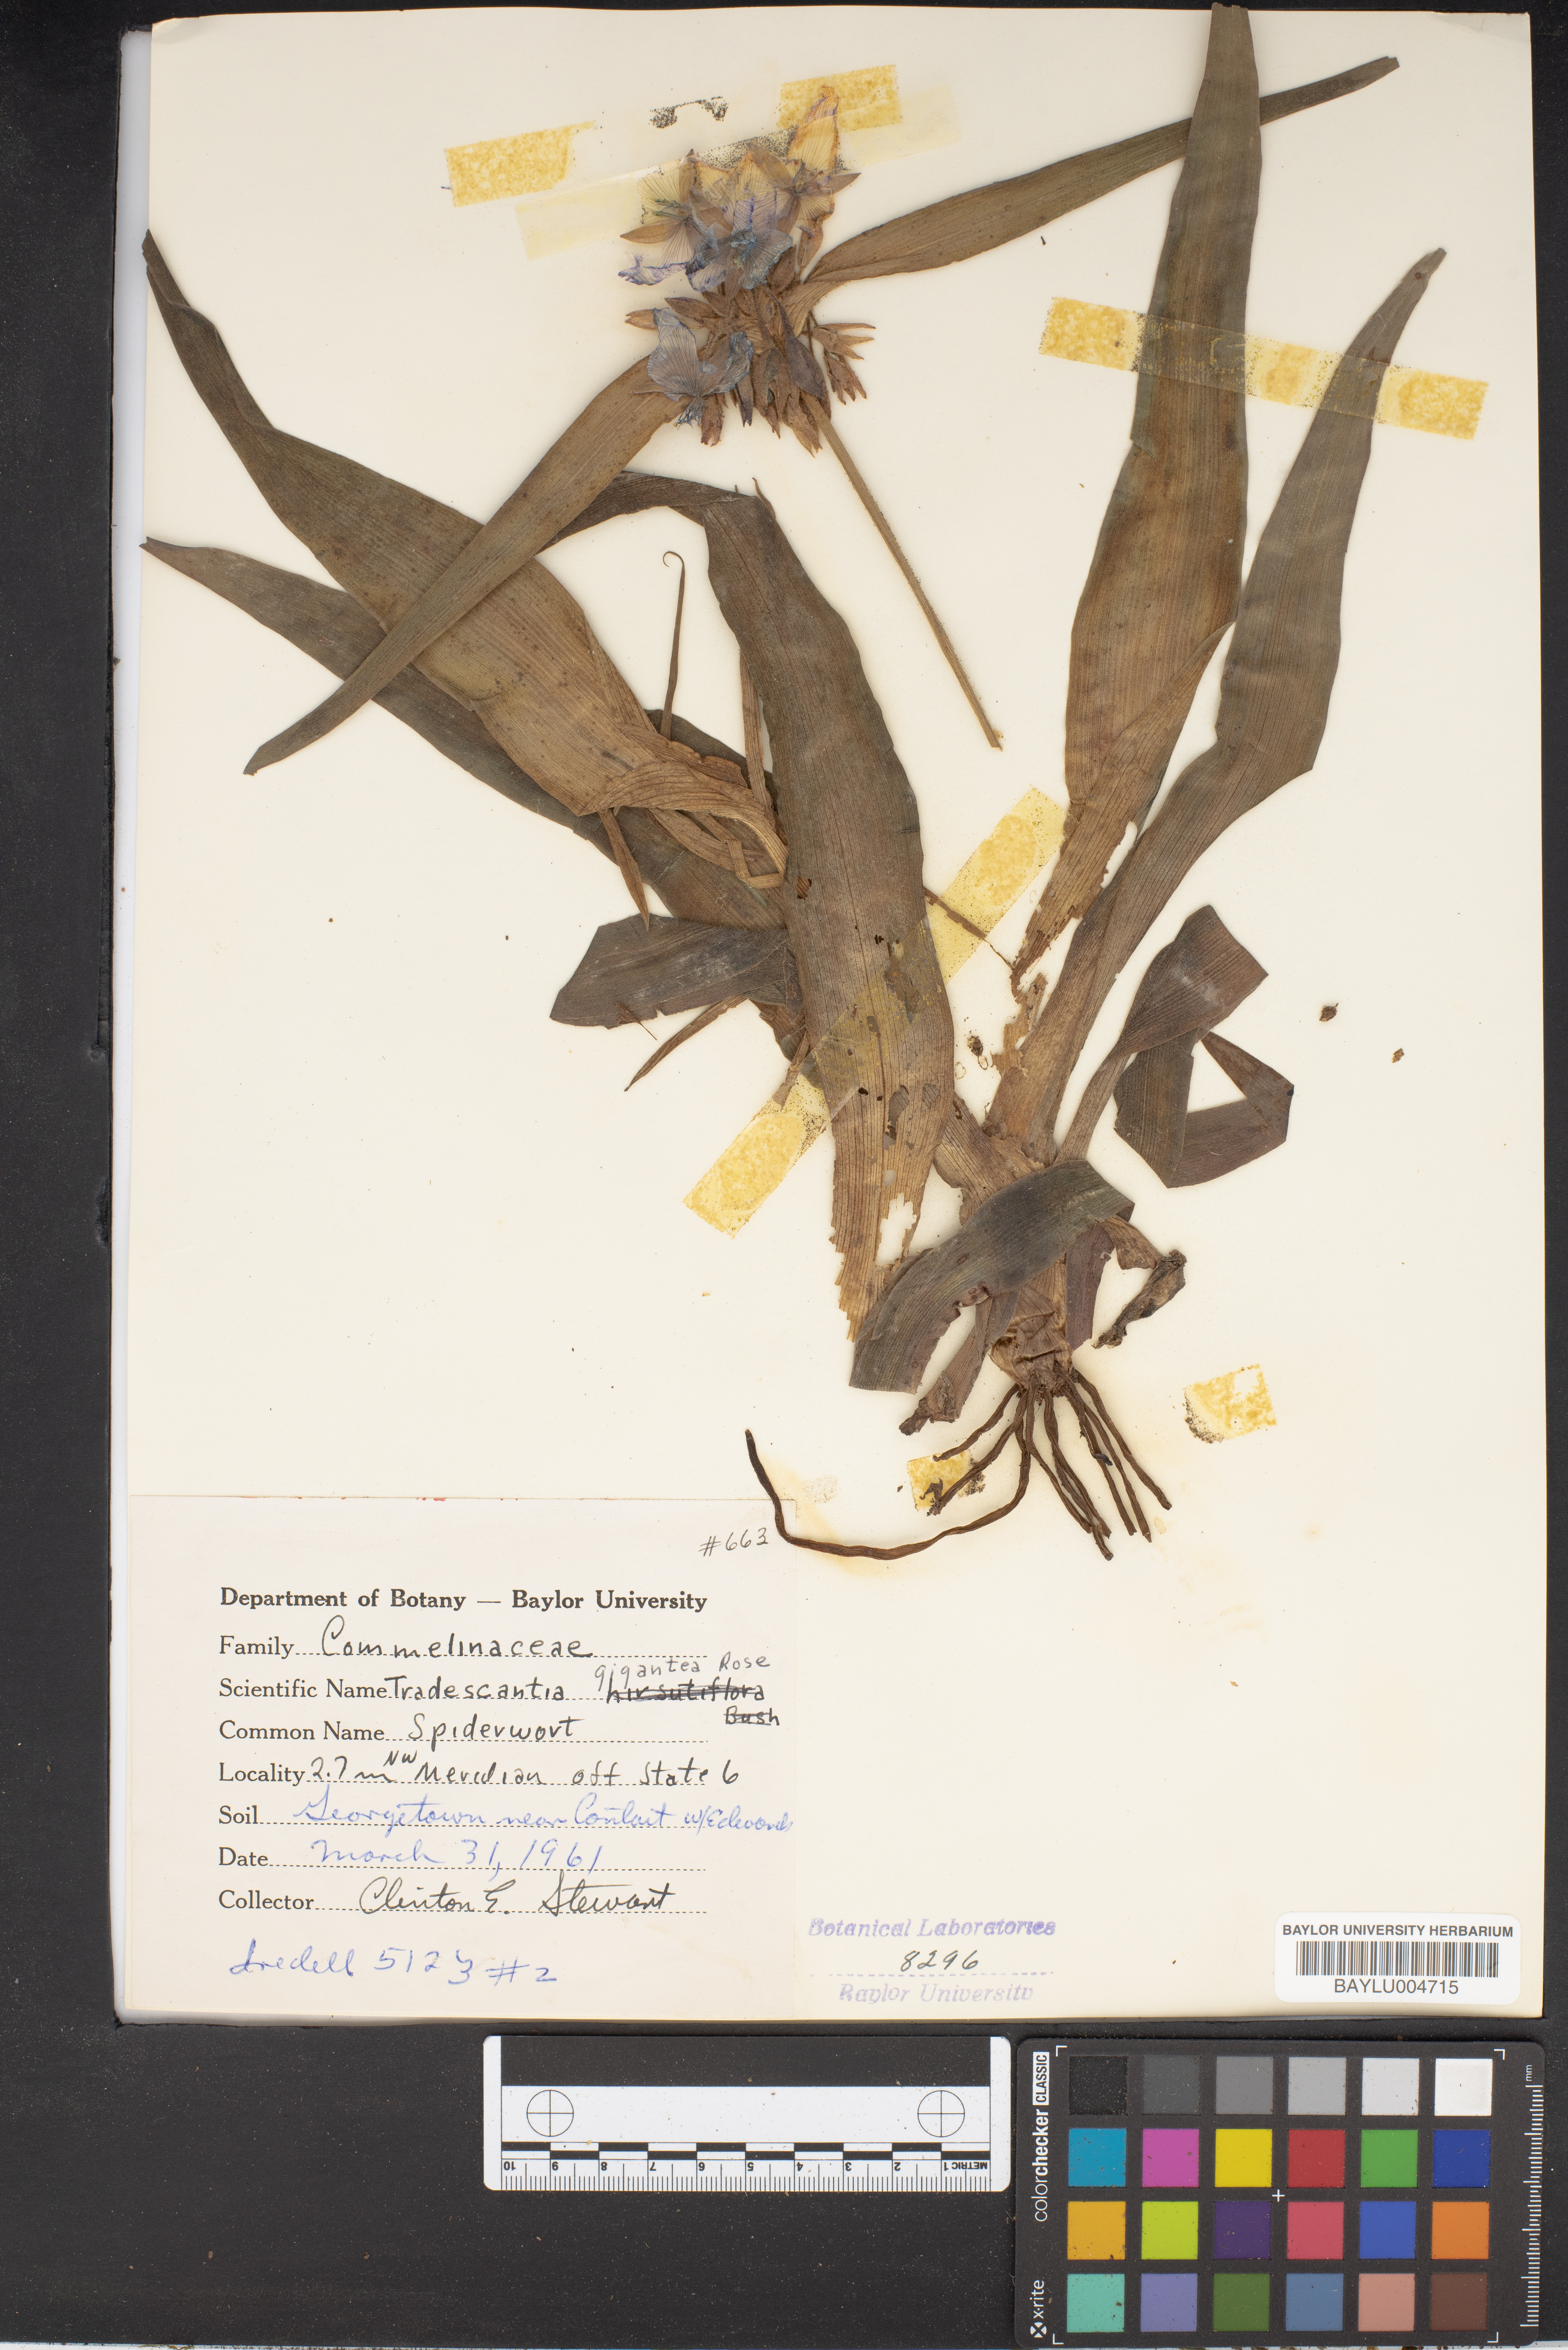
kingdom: Plantae
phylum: Tracheophyta
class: Liliopsida
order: Commelinales
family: Commelinaceae
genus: Tradescantia
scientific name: Tradescantia gigantea
